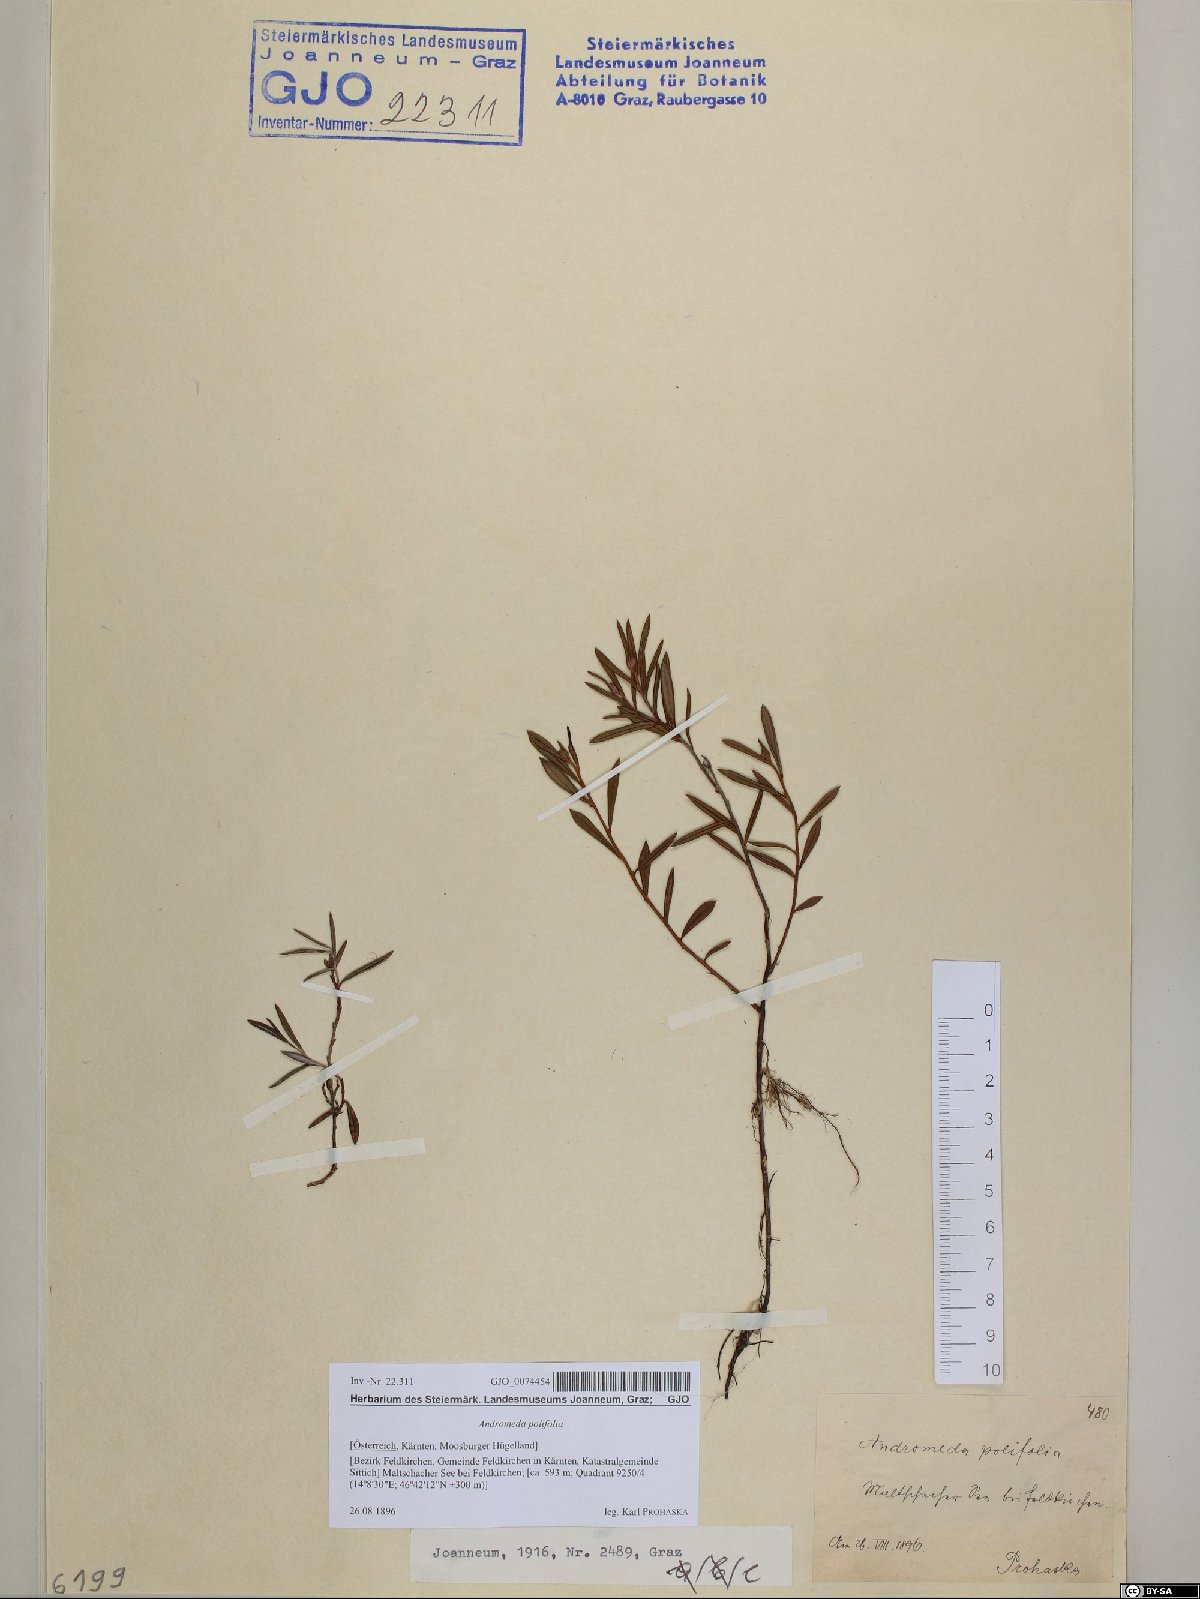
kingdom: Plantae
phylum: Tracheophyta
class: Magnoliopsida
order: Ericales
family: Ericaceae
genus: Andromeda
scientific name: Andromeda polifolia
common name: Bog-rosemary
